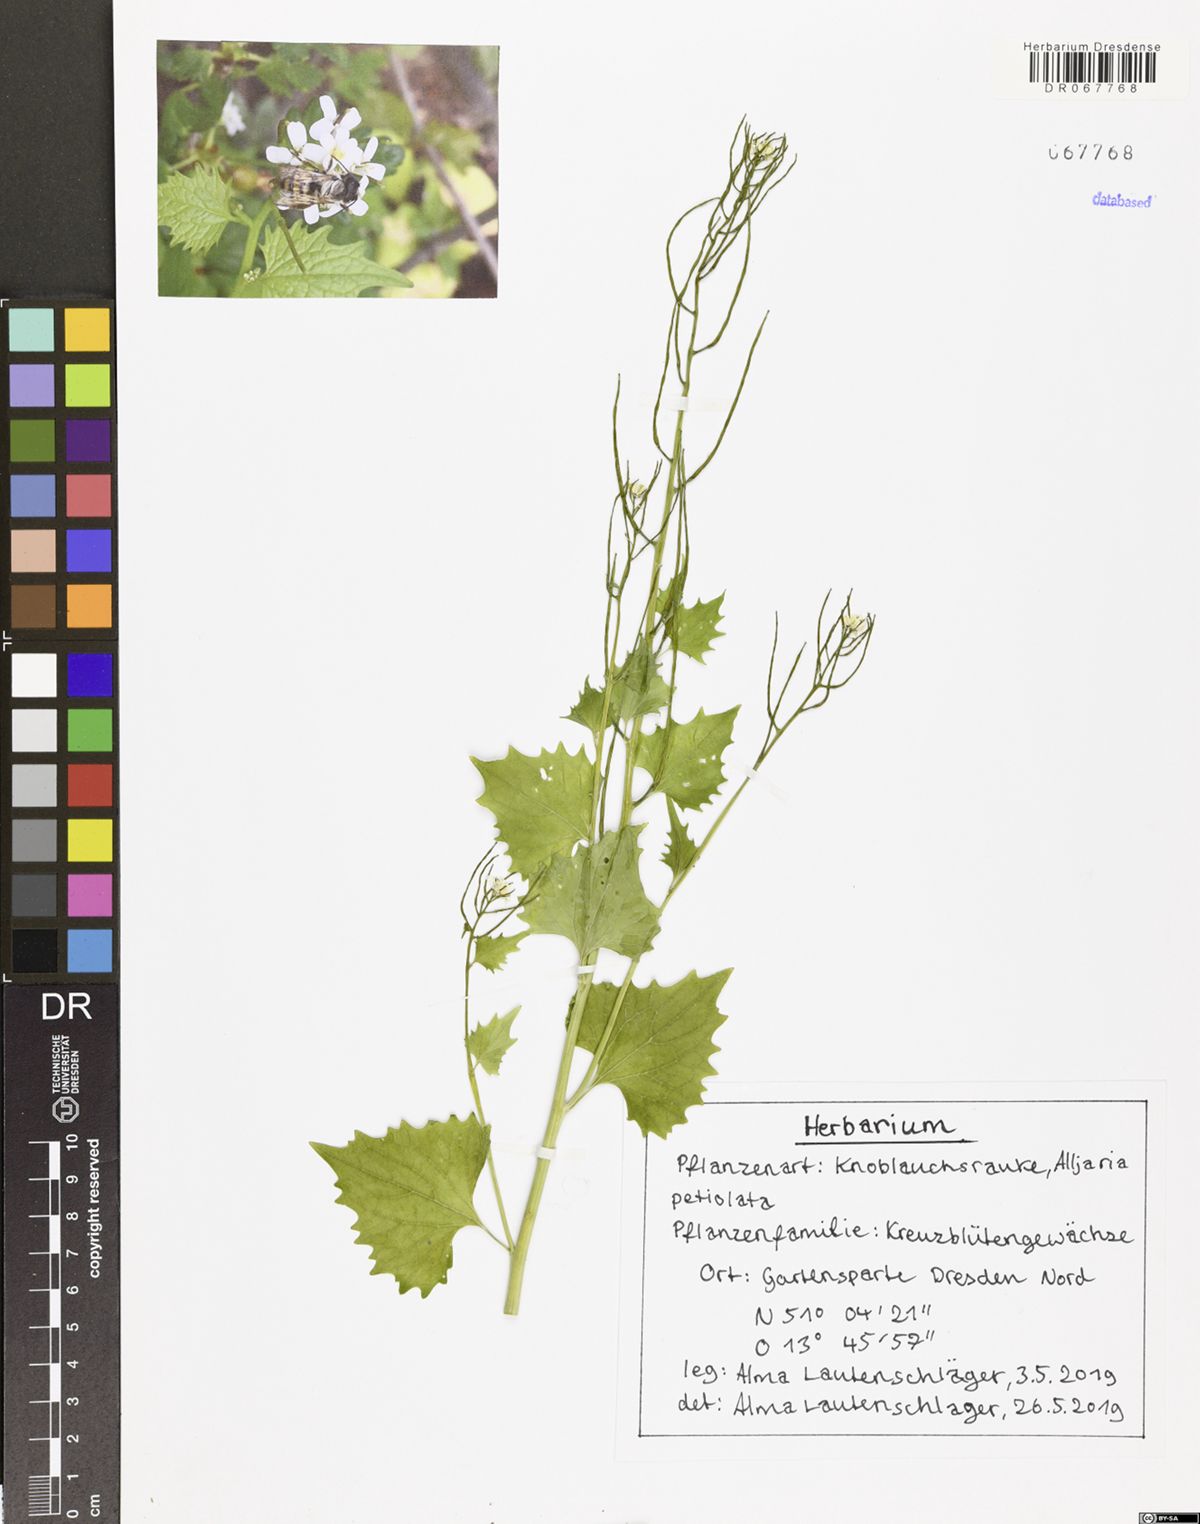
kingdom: Plantae
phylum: Tracheophyta
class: Magnoliopsida
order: Brassicales
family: Brassicaceae
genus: Alliaria
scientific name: Alliaria petiolata
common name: Garlic mustard
